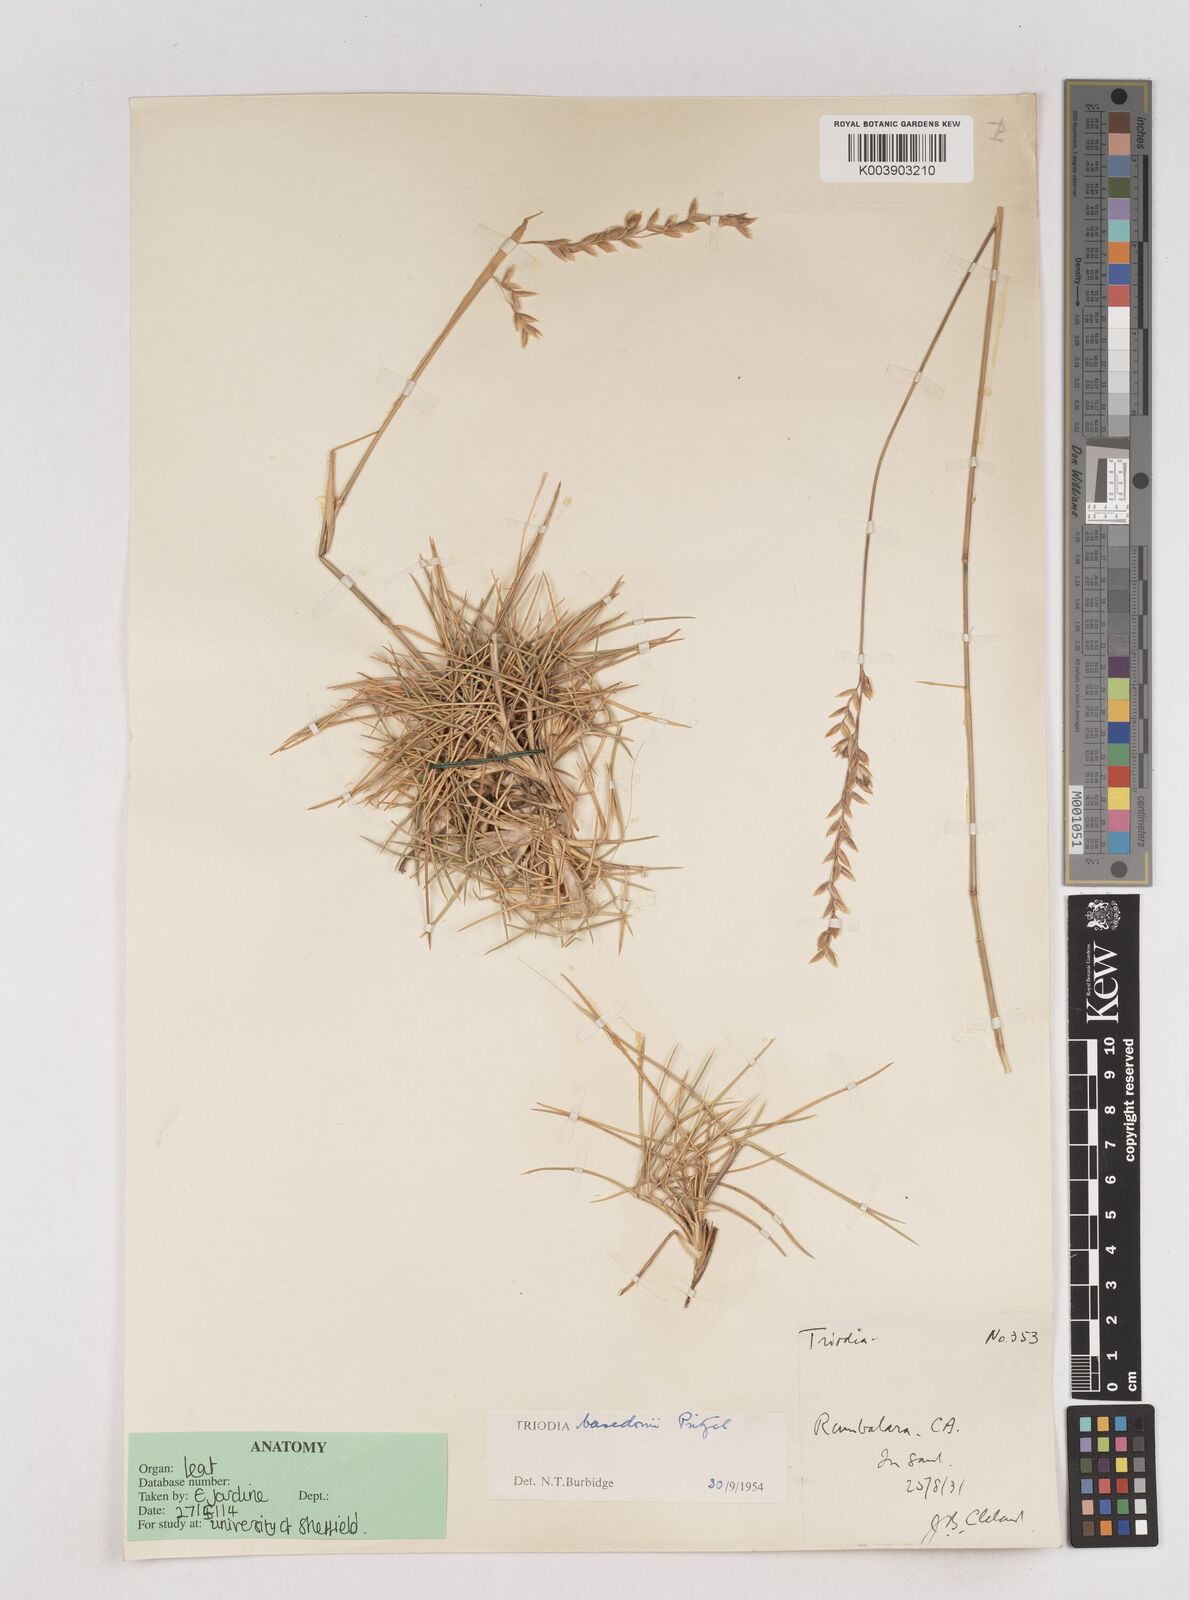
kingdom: Plantae
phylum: Tracheophyta
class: Liliopsida
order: Poales
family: Poaceae
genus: Triodia
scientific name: Triodia basedowii
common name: Hard spinifex
